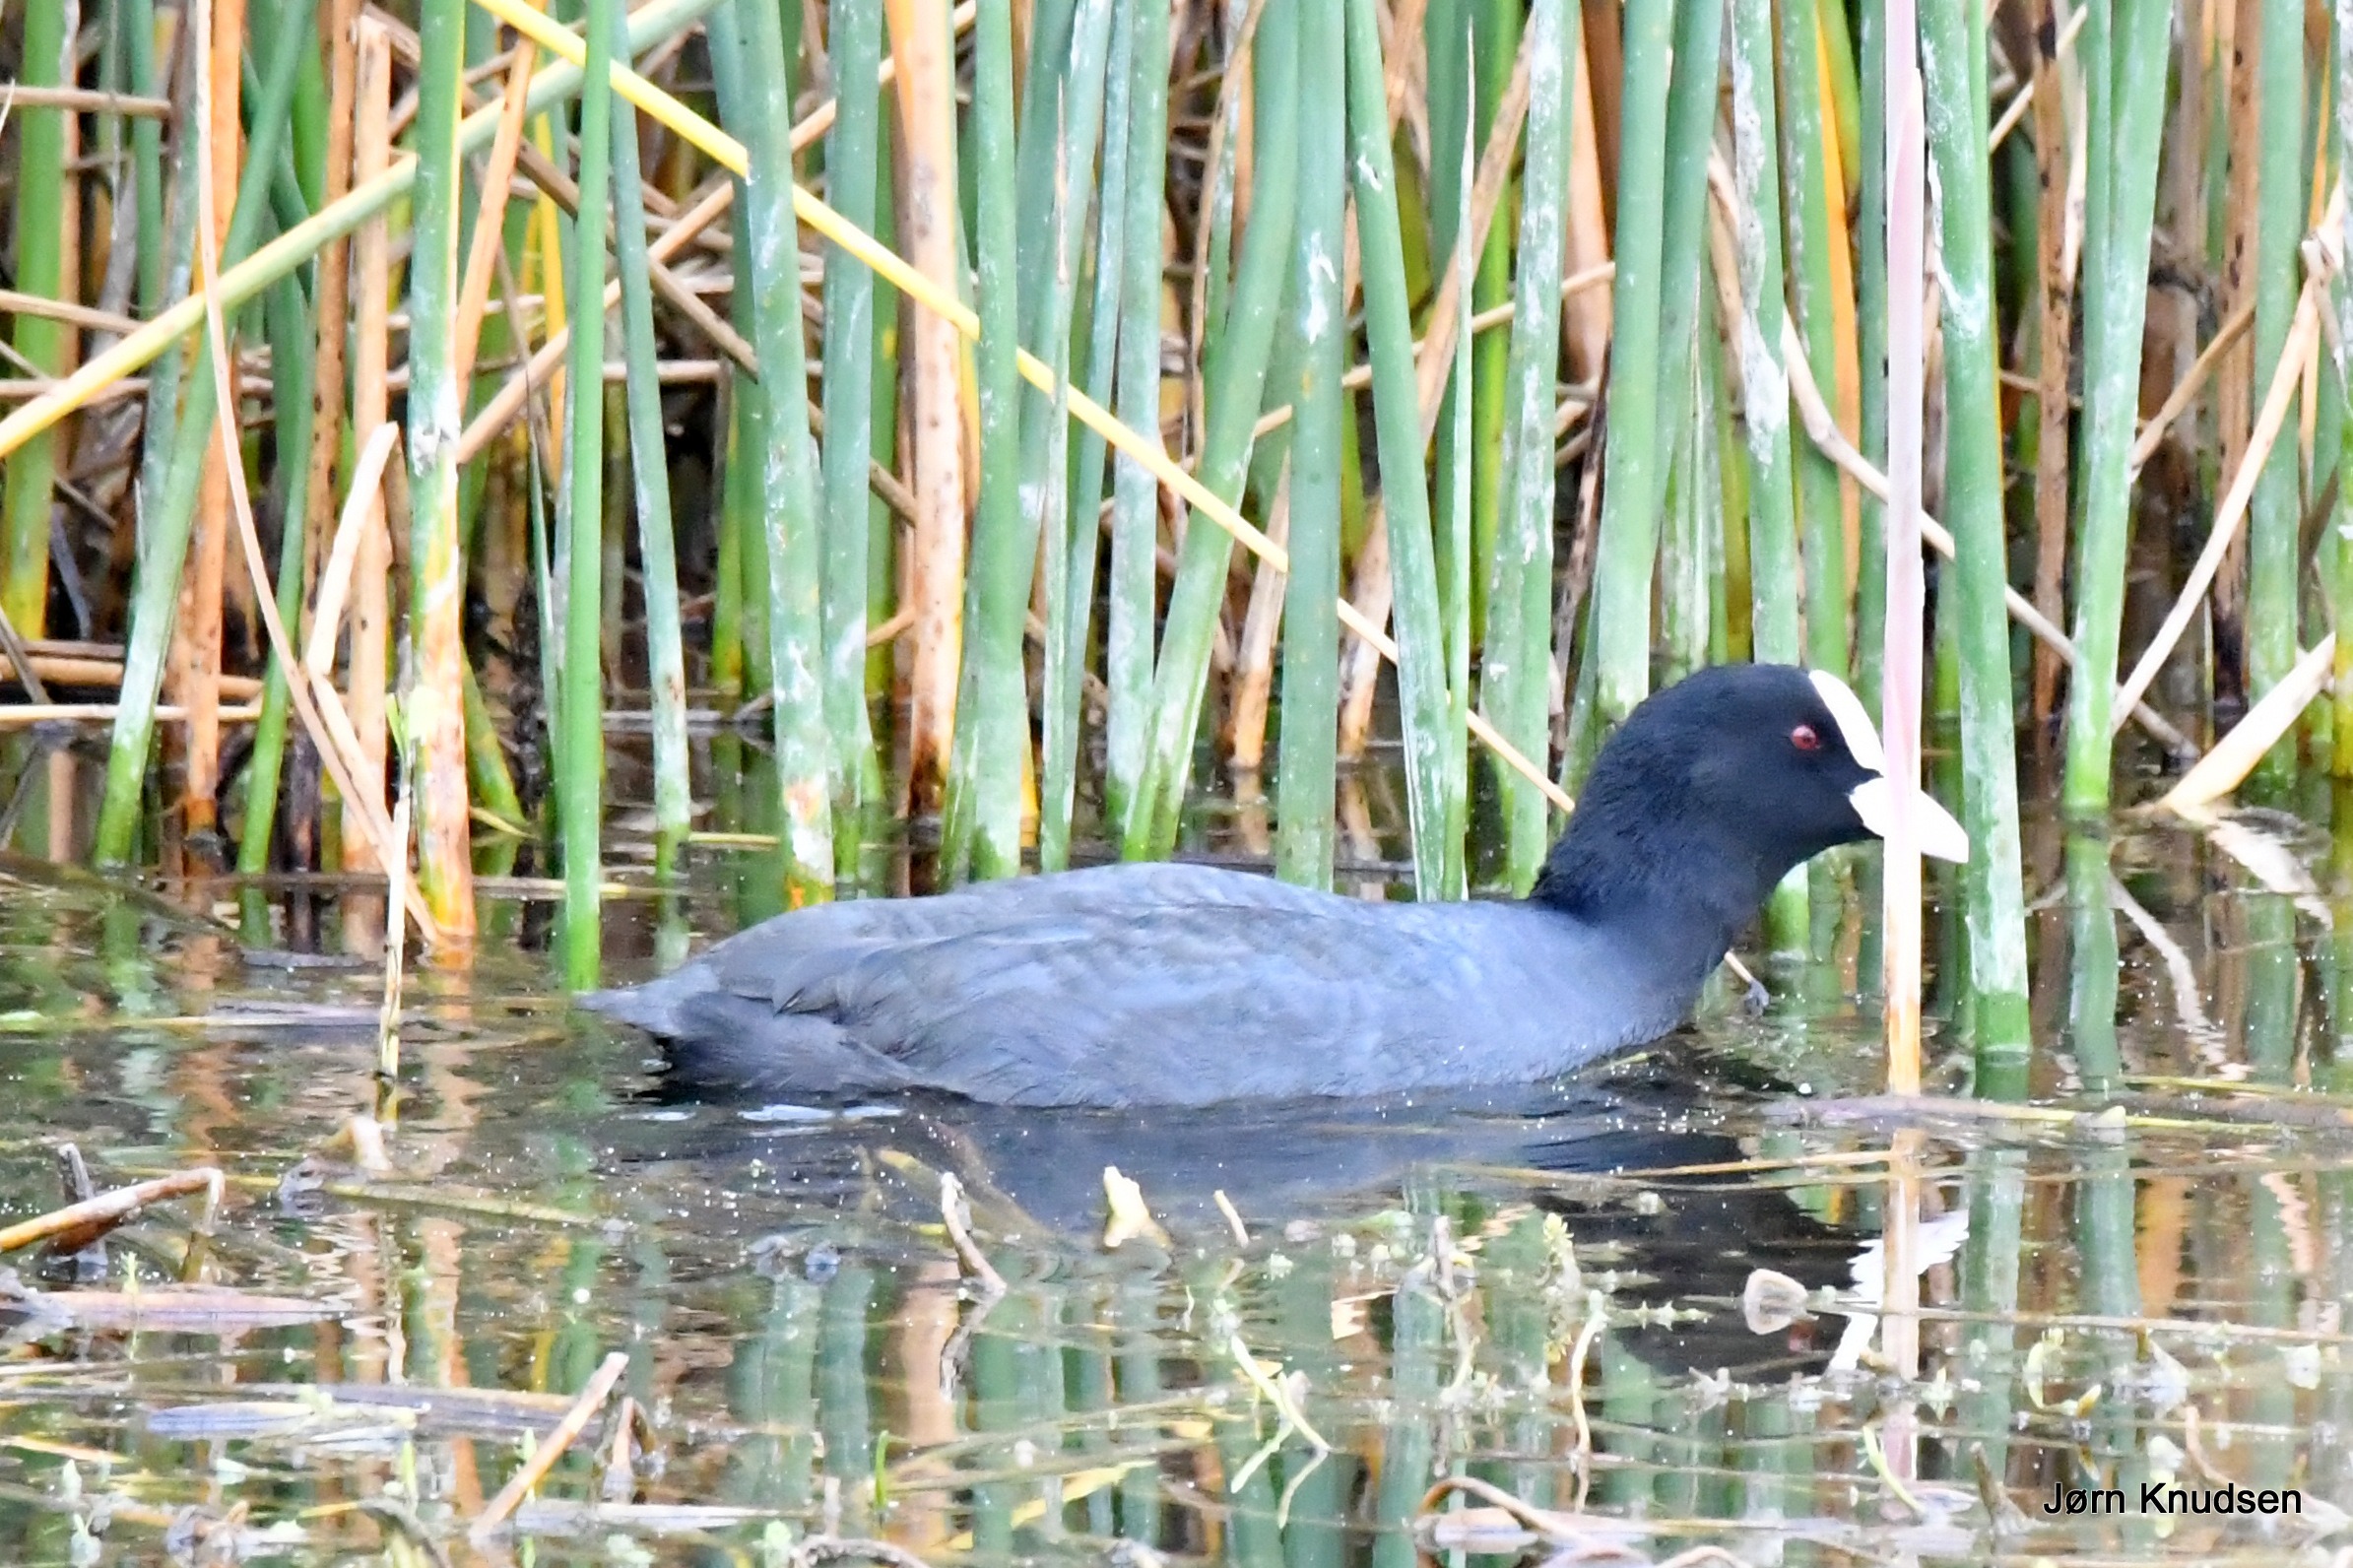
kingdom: Animalia
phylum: Chordata
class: Aves
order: Gruiformes
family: Rallidae
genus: Fulica
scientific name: Fulica atra
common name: Blishøne
